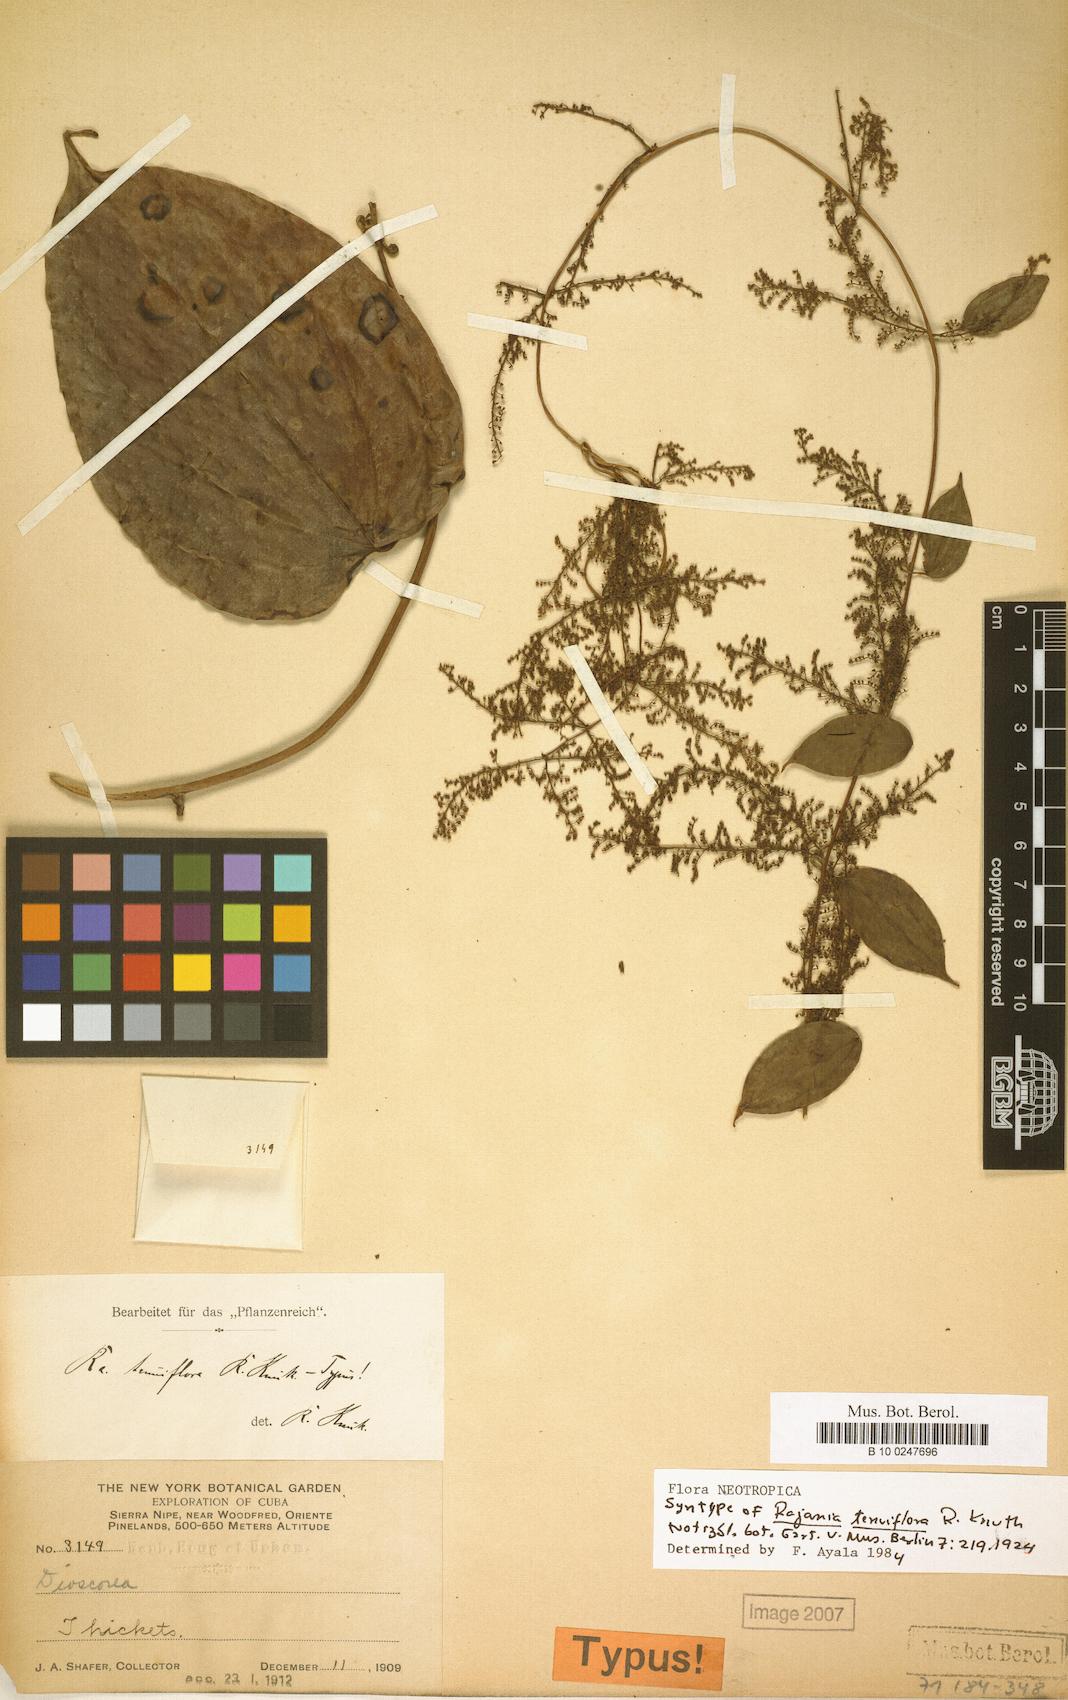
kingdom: Plantae
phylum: Tracheophyta
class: Liliopsida
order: Dioscoreales
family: Dioscoreaceae
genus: Dioscorea
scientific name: Dioscorea baracoensis
